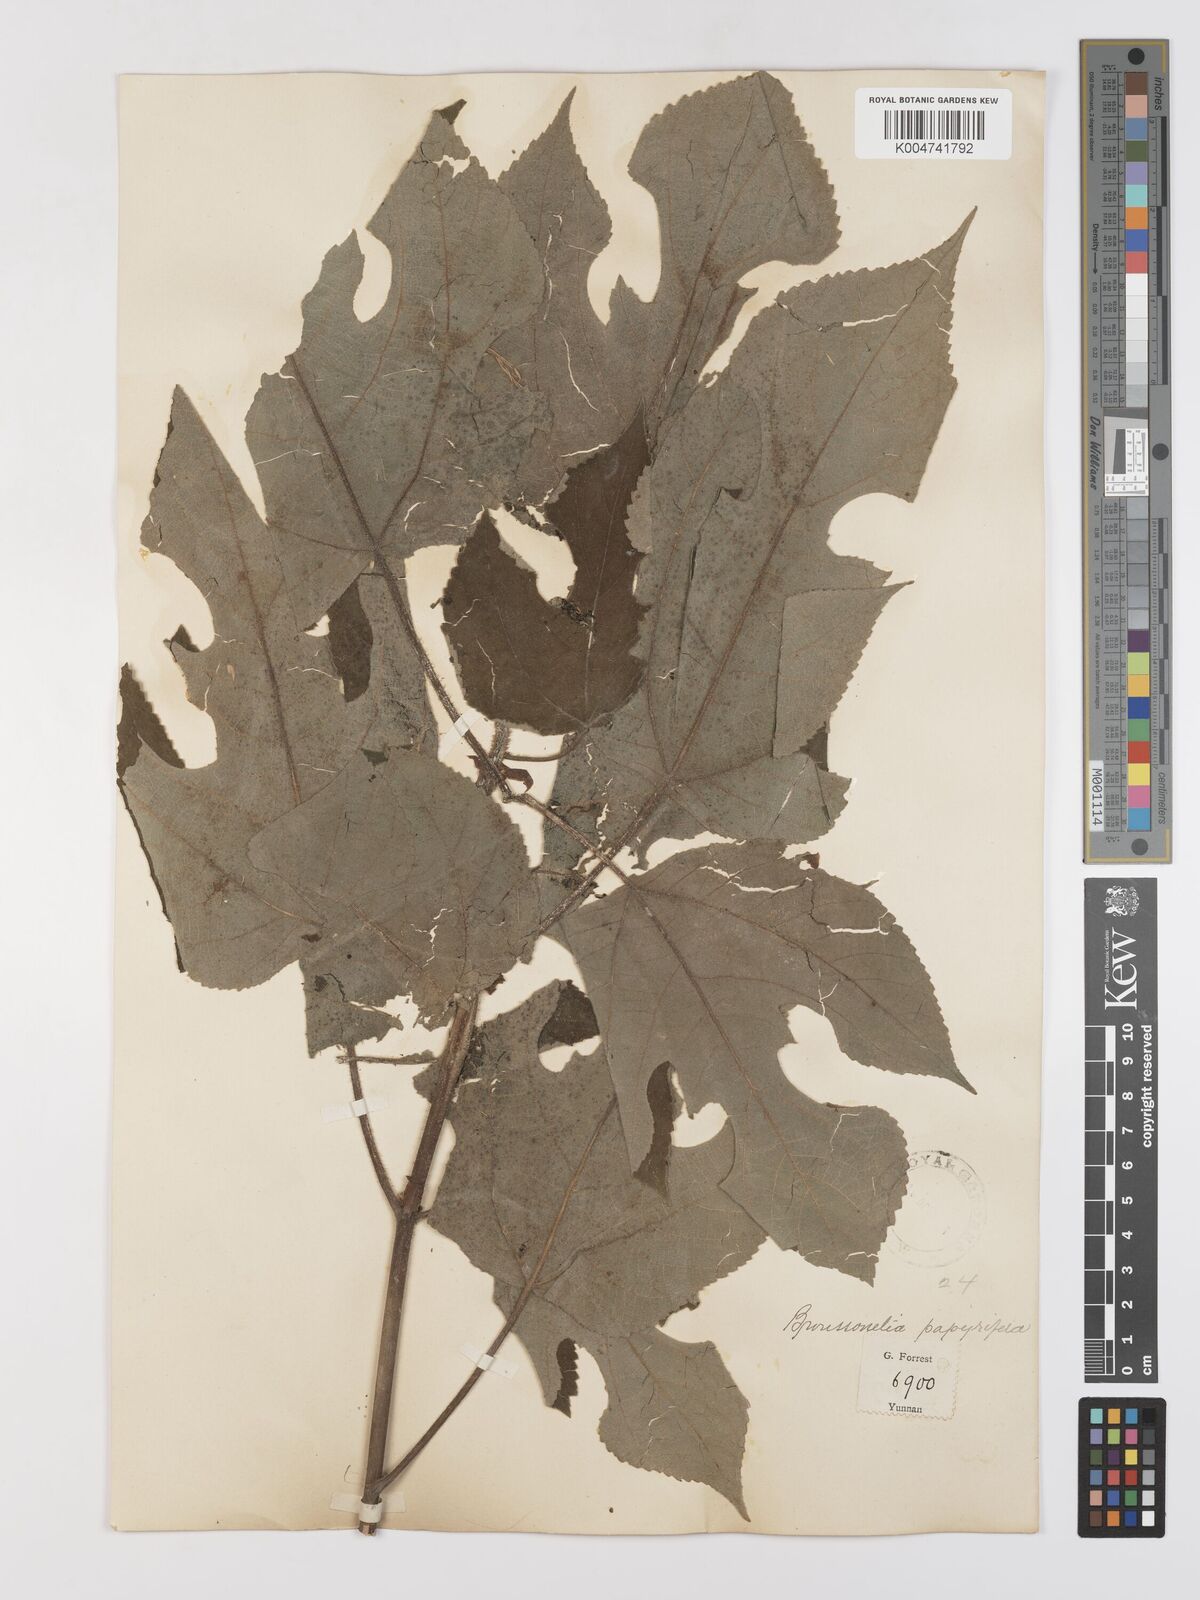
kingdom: Plantae
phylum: Tracheophyta
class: Magnoliopsida
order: Rosales
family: Moraceae
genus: Broussonetia
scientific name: Broussonetia papyrifera
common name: Paper mulberry
